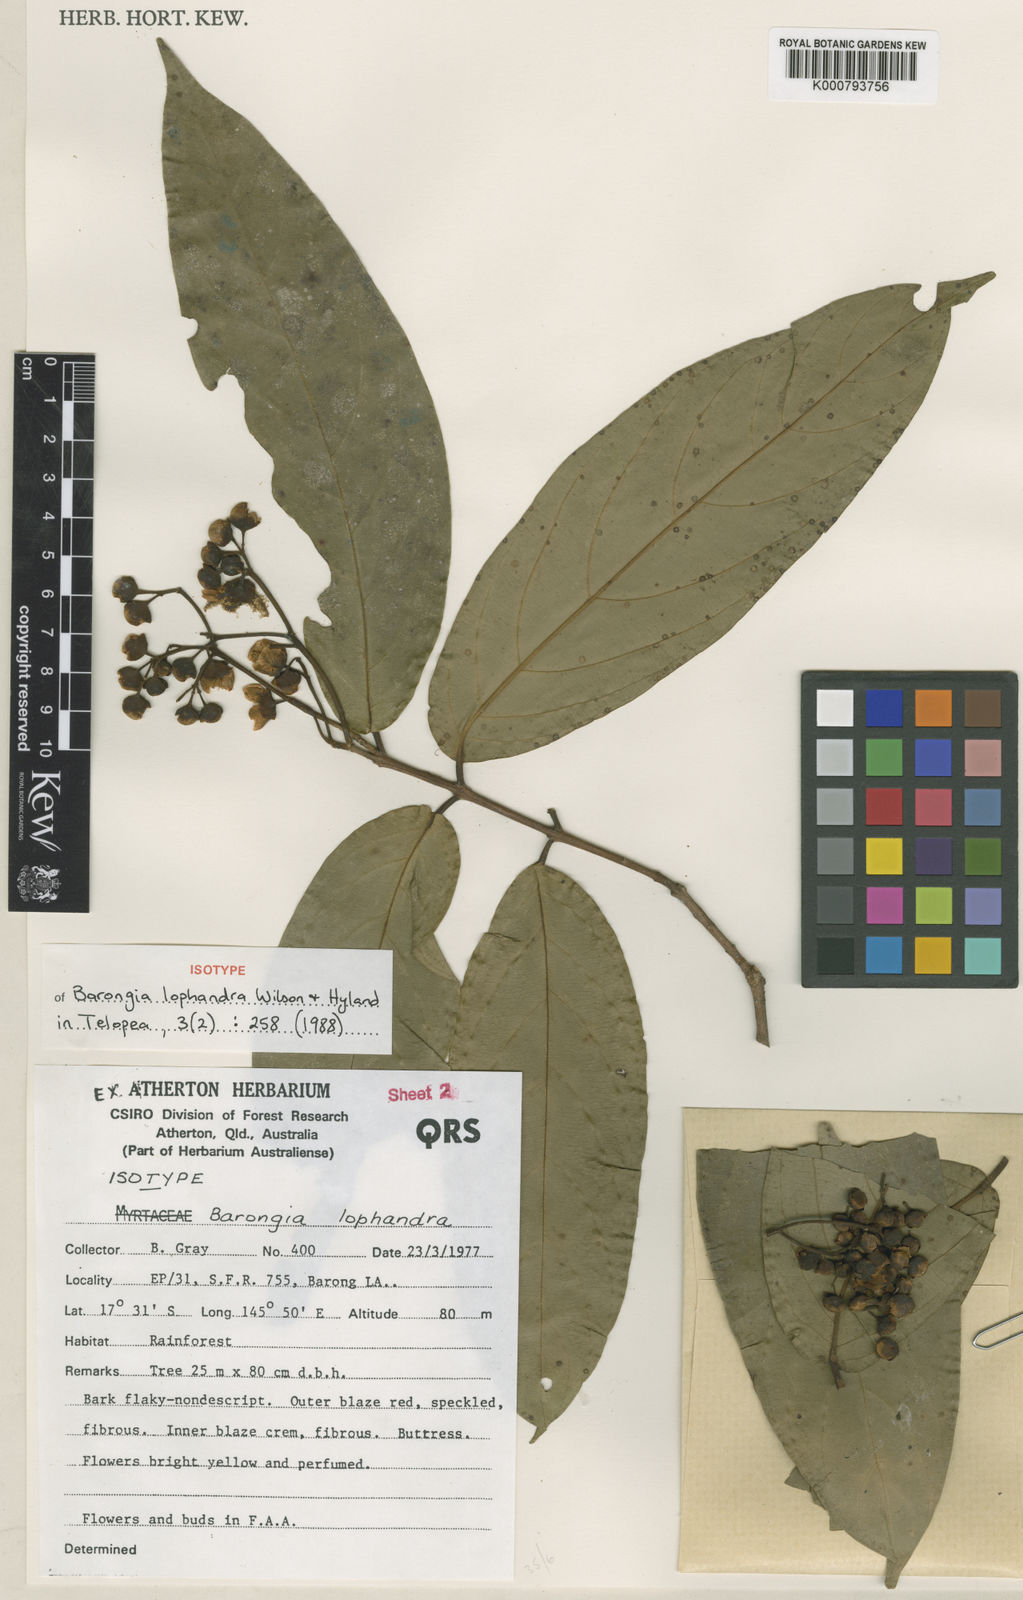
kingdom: Plantae
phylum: Tracheophyta
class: Magnoliopsida
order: Myrtales
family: Myrtaceae
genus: Barongia
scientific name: Barongia lophandra
